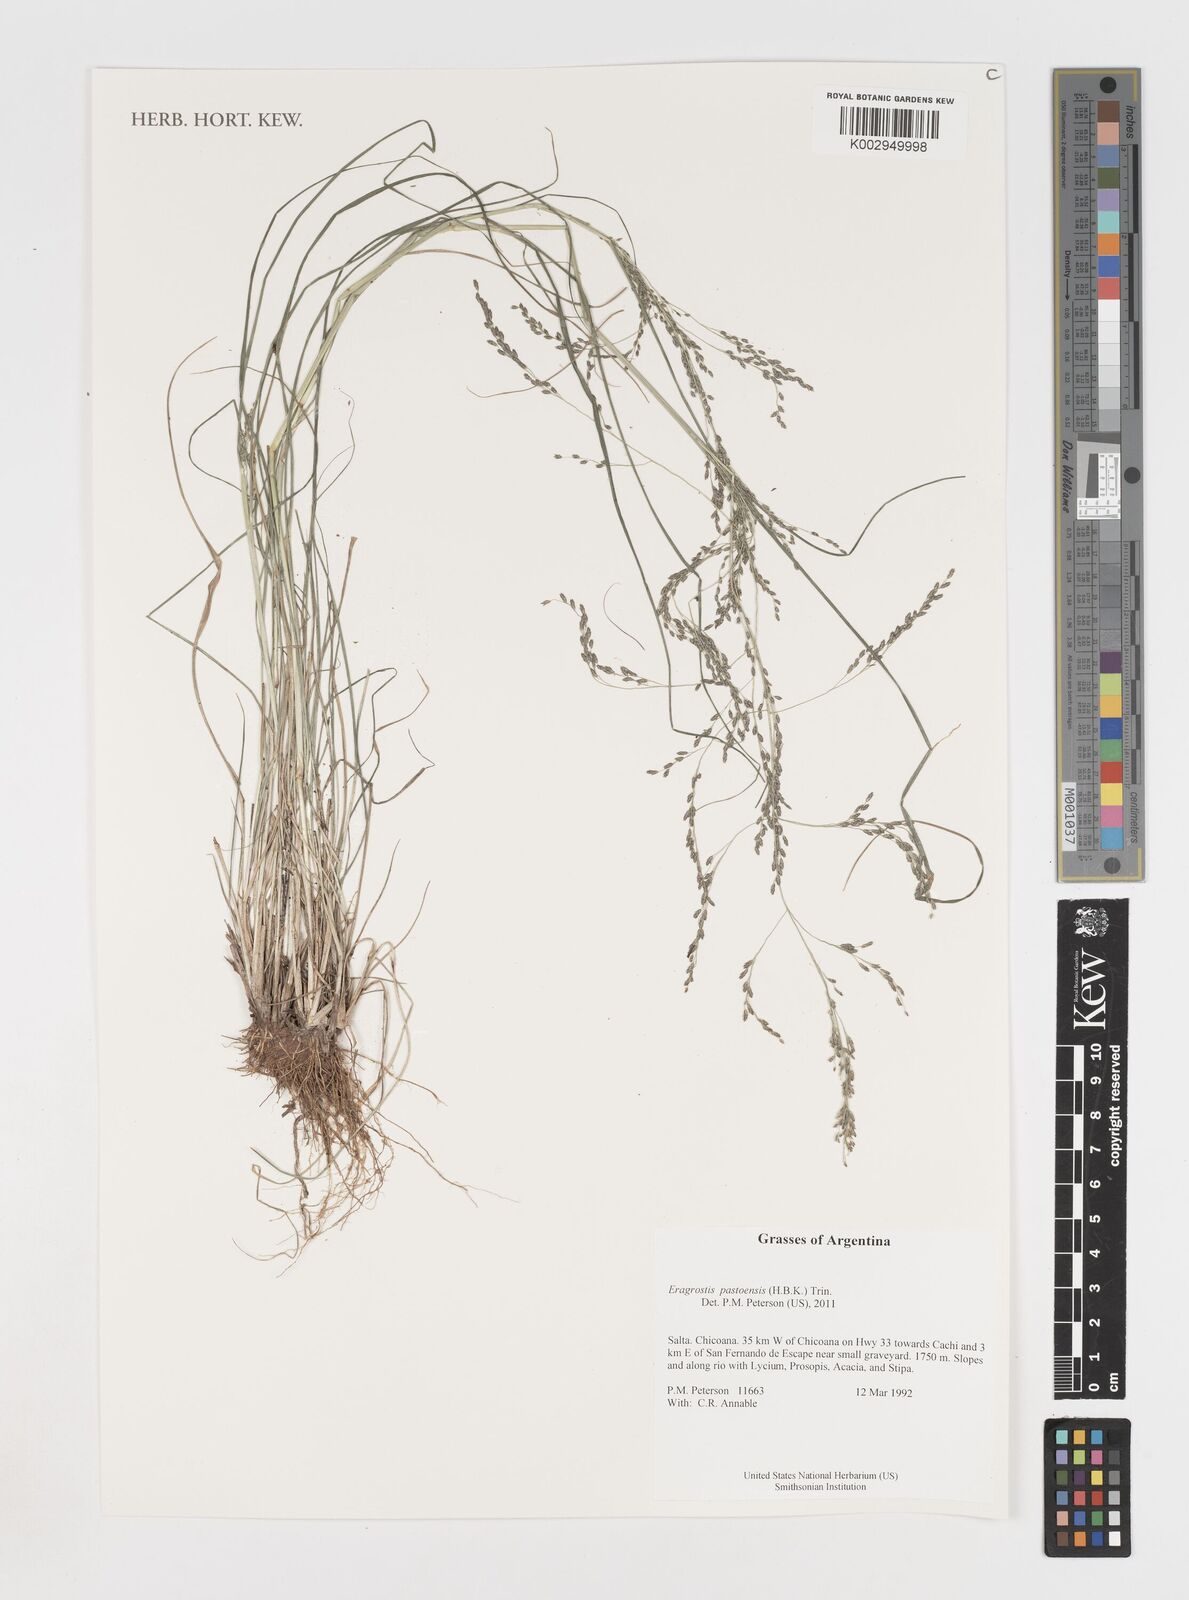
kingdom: Plantae
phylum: Tracheophyta
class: Liliopsida
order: Poales
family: Poaceae
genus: Eragrostis
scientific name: Eragrostis pastoensis
